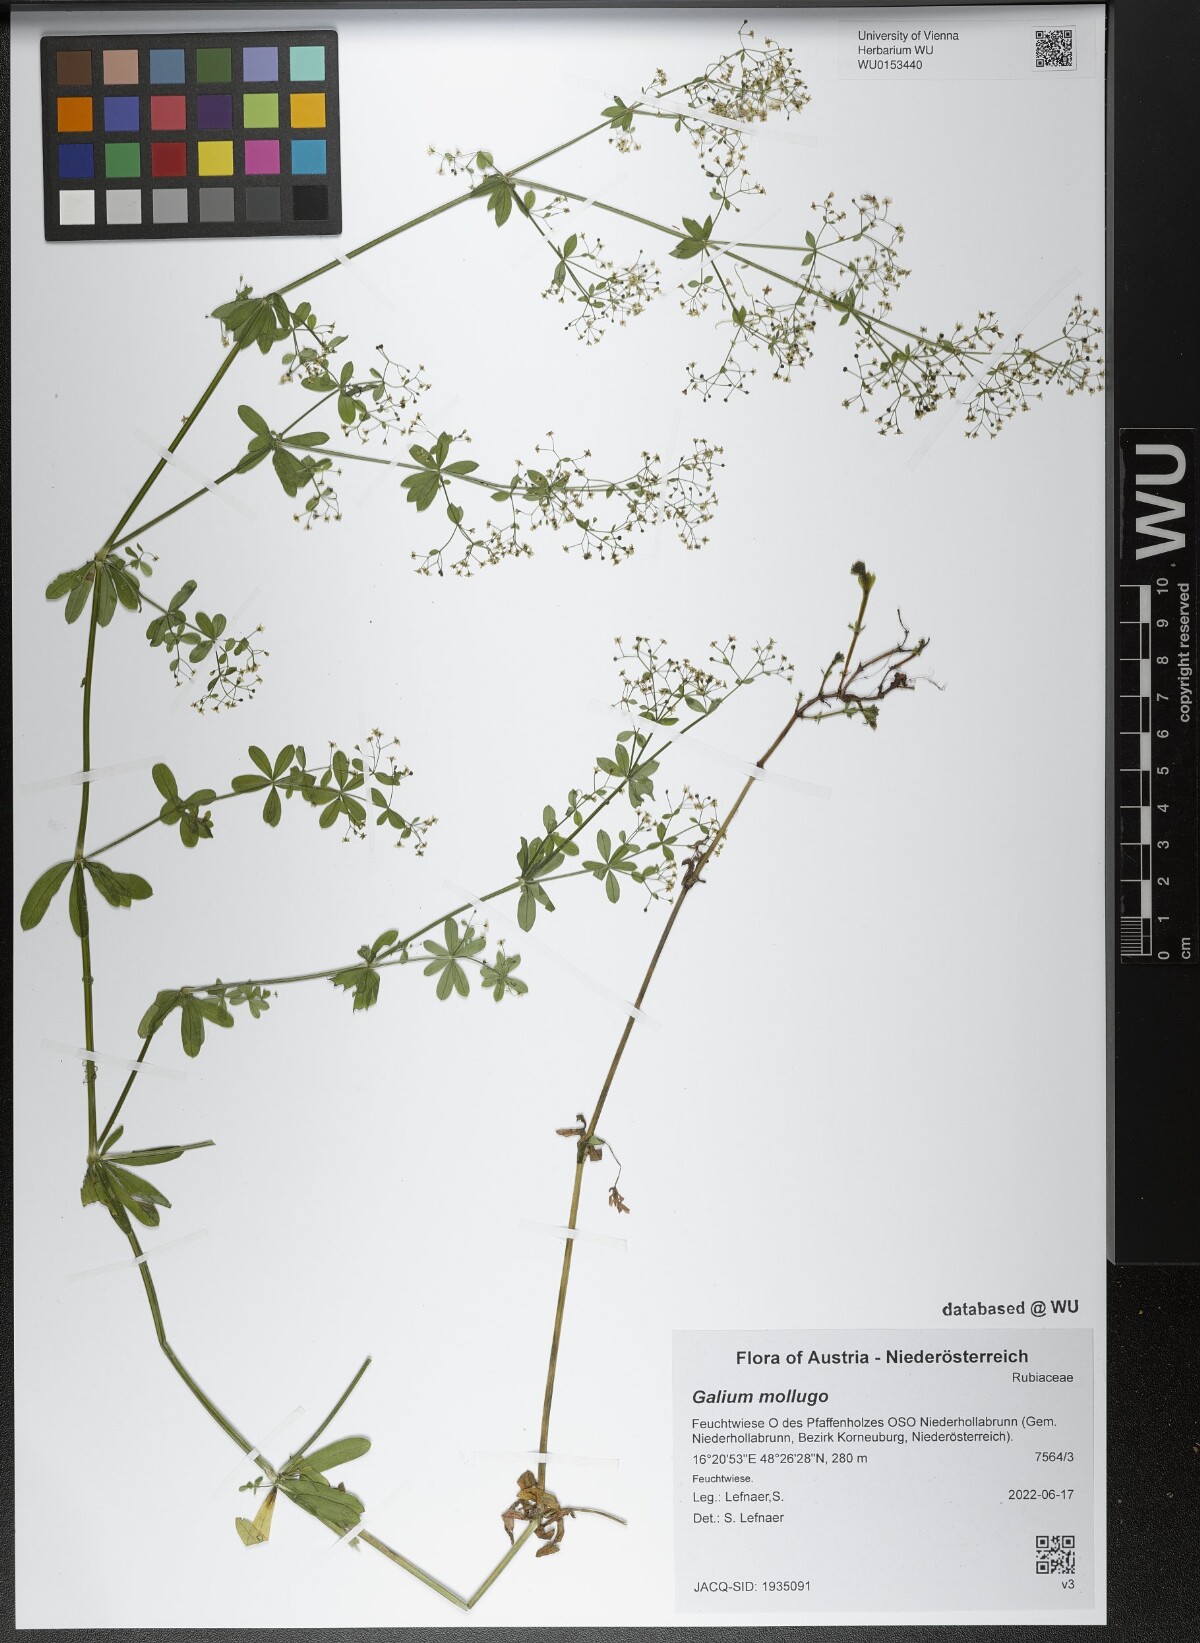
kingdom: Plantae
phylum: Tracheophyta
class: Magnoliopsida
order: Gentianales
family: Rubiaceae
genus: Galium
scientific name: Galium mollugo
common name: Hedge bedstraw
